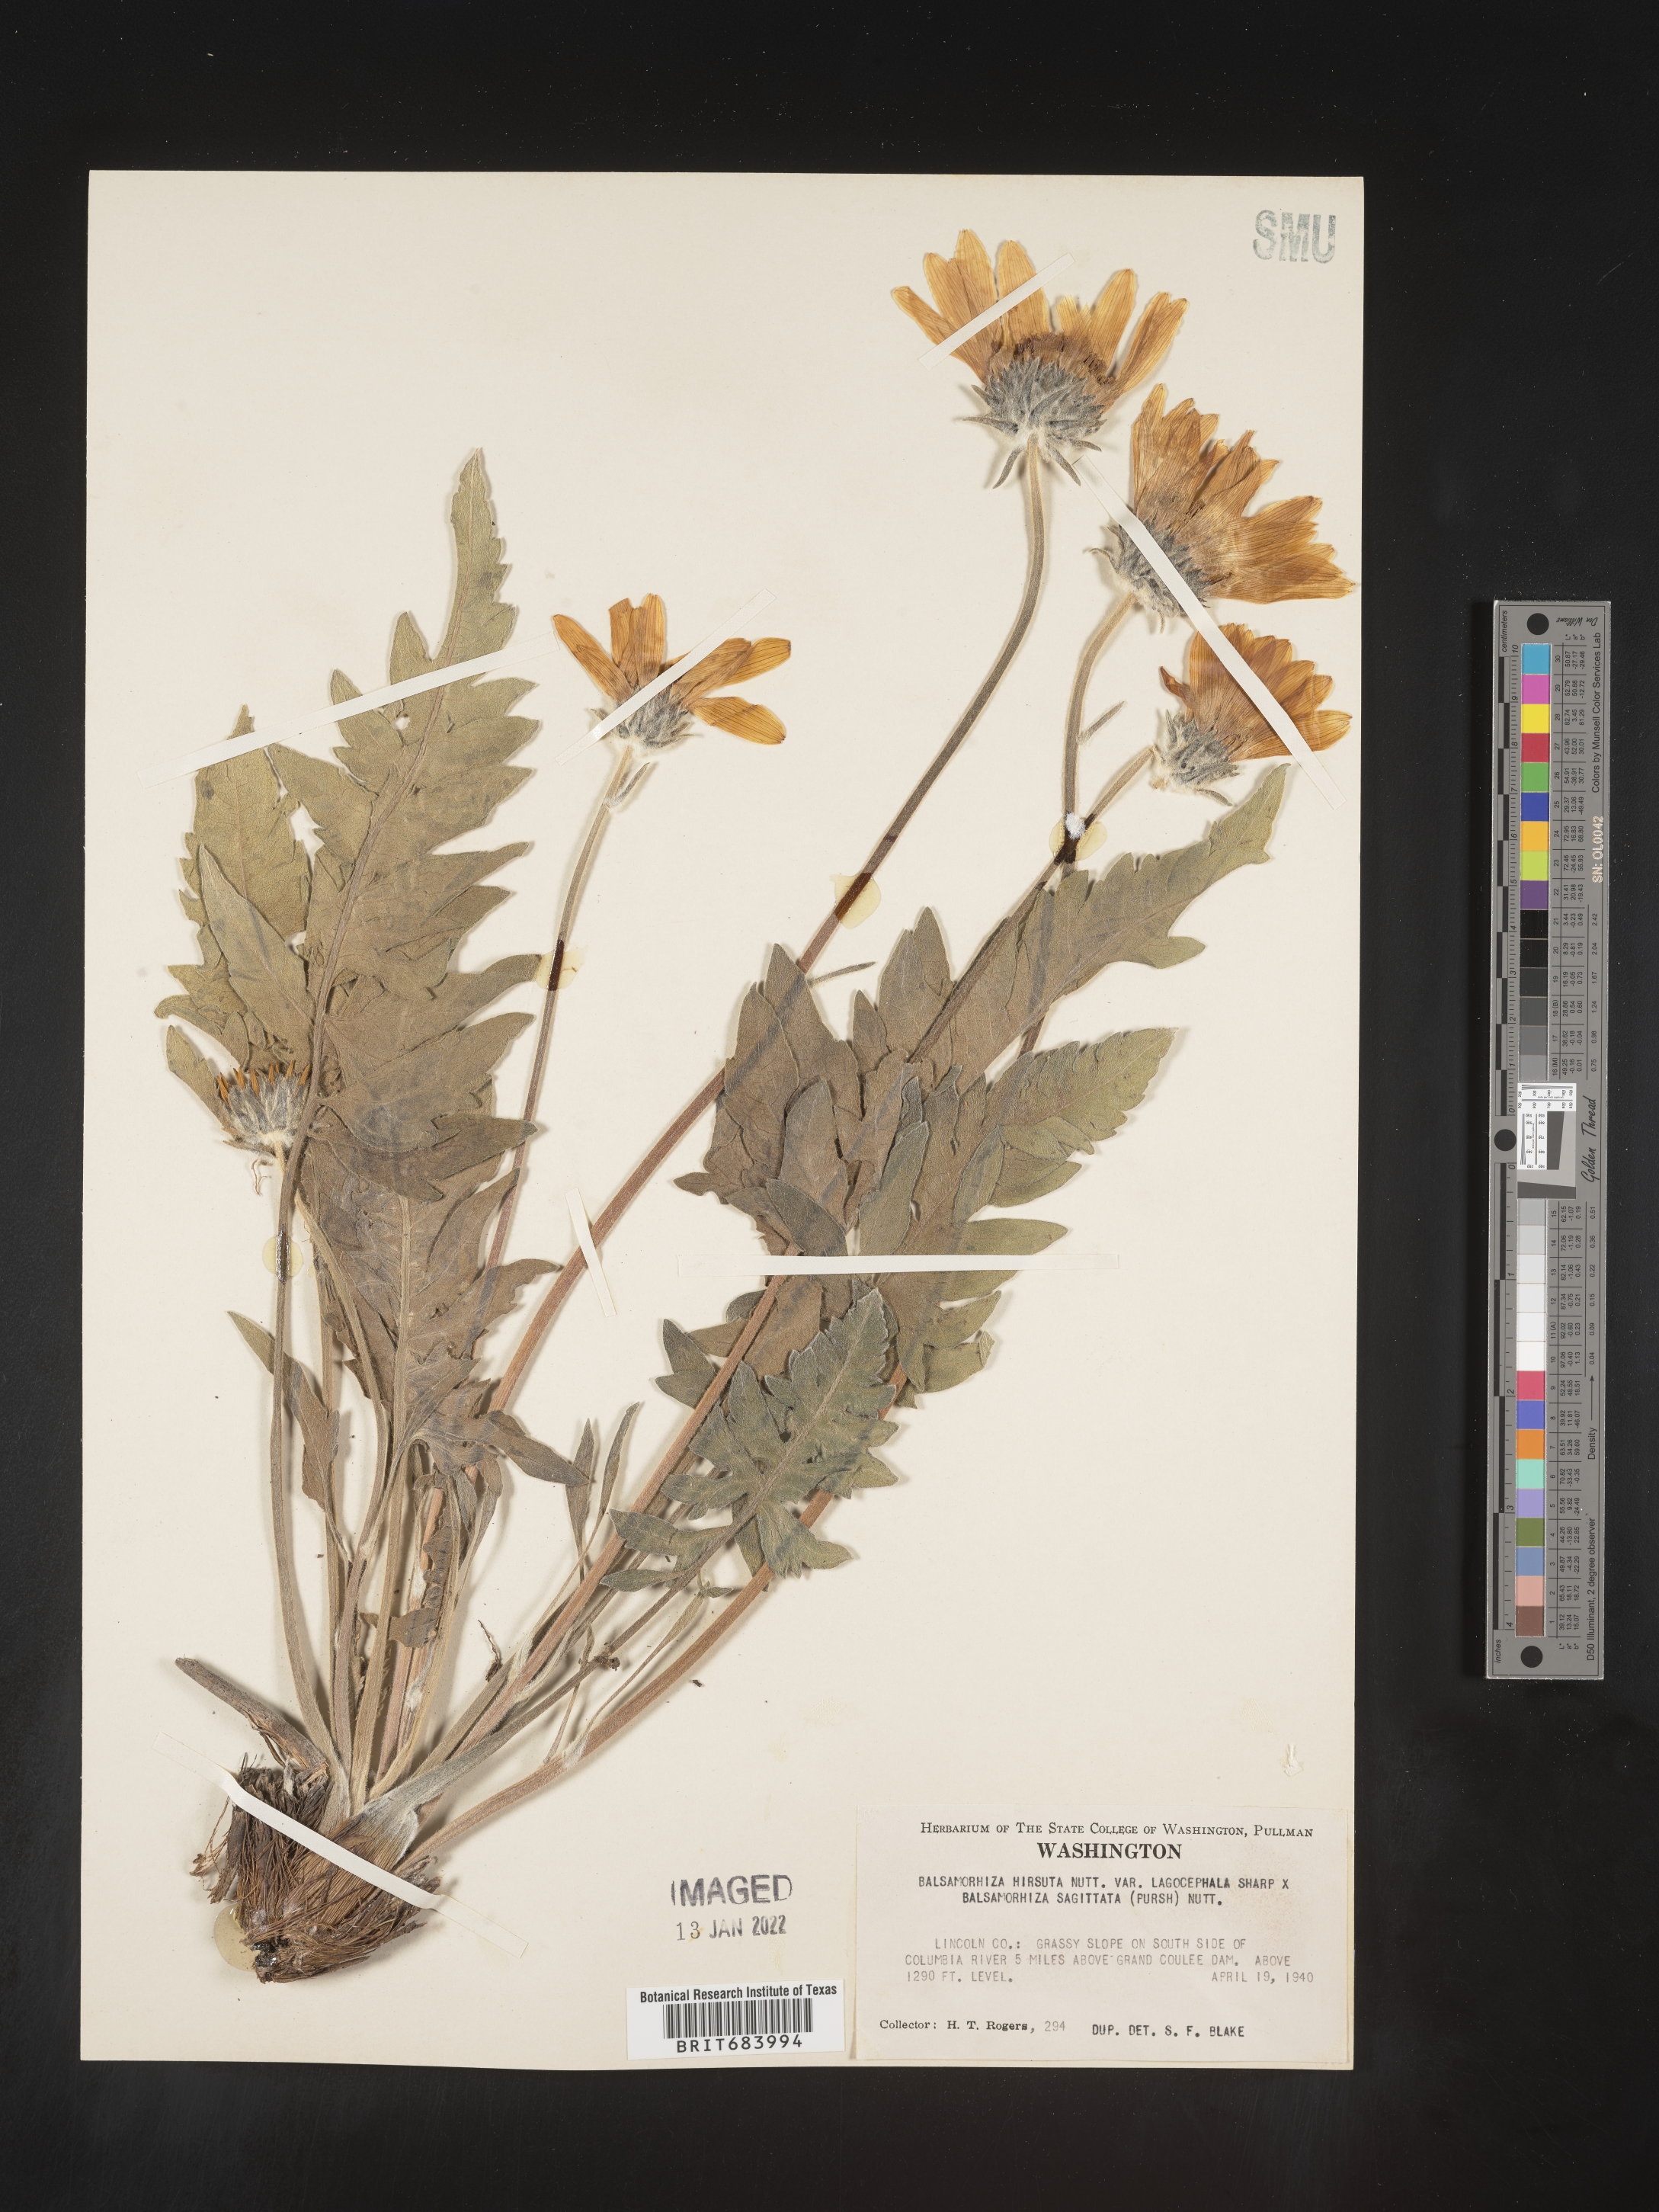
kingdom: Plantae
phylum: Tracheophyta
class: Magnoliopsida
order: Asterales
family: Asteraceae
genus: Balsamorhiza
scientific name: Balsamorhiza hookeri
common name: Hooker's balsamroot
